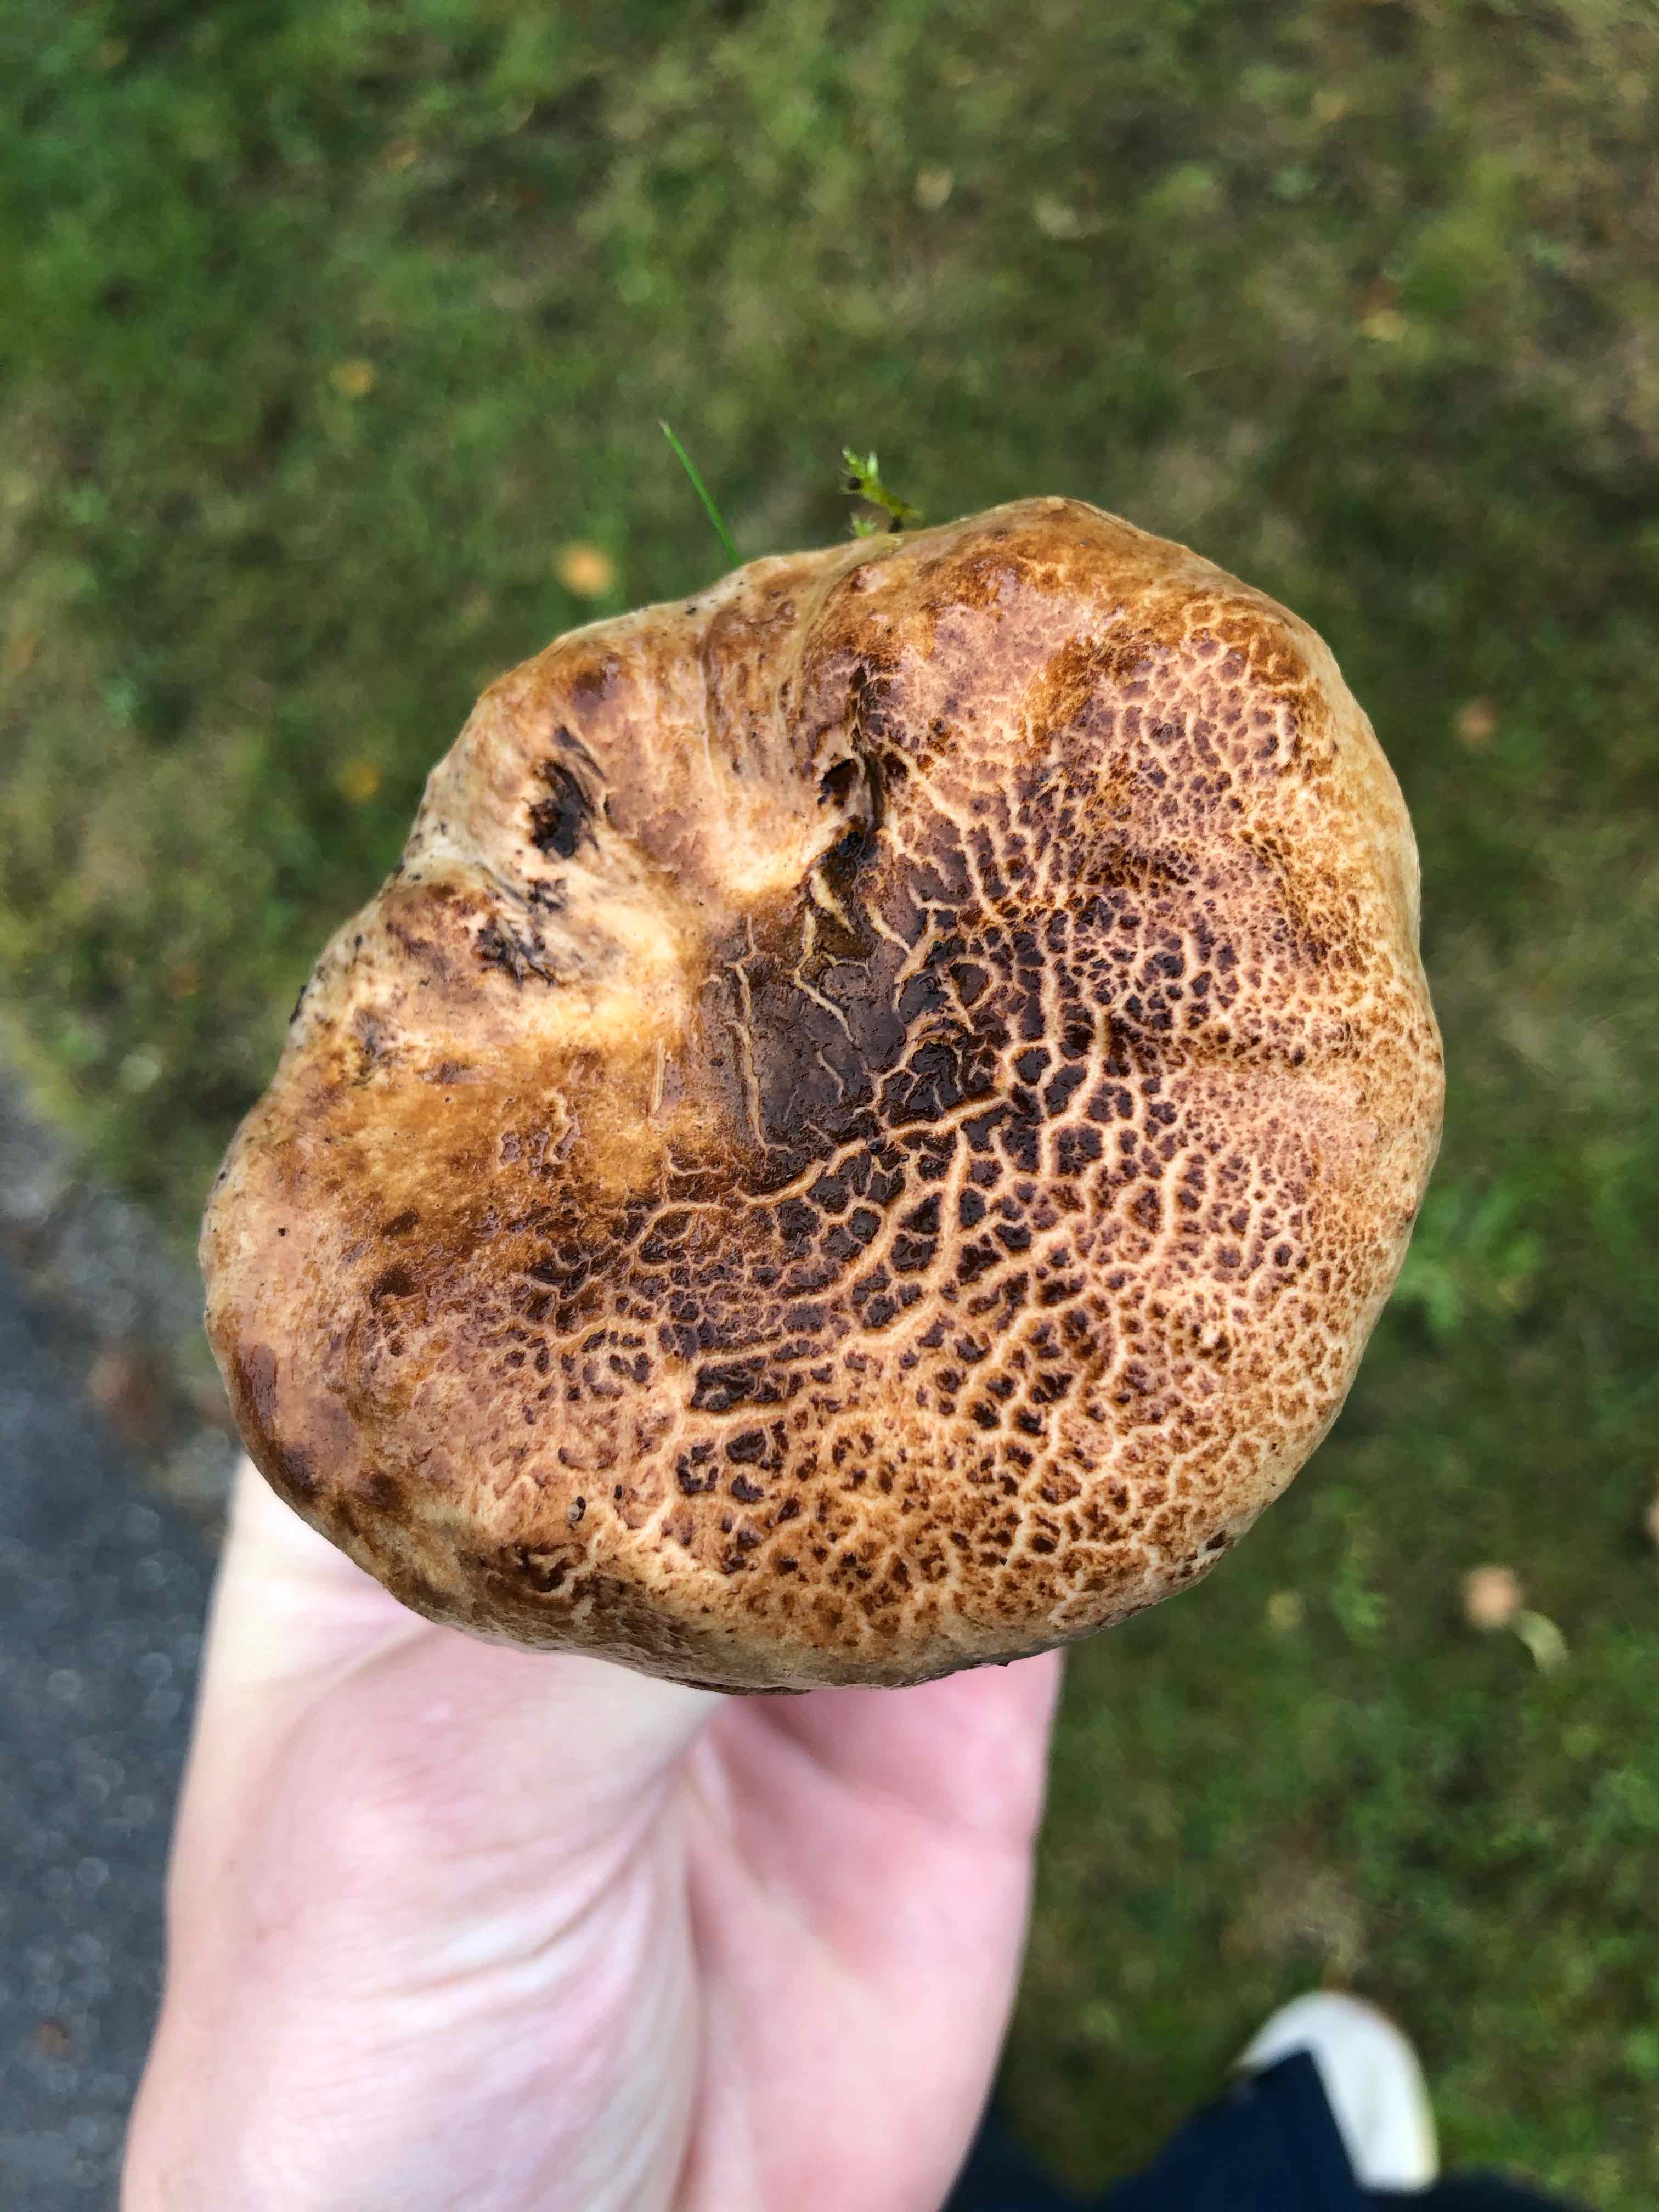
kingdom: Fungi
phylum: Basidiomycota
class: Agaricomycetes
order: Boletales
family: Paxillaceae
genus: Paxillus
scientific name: Paxillus
